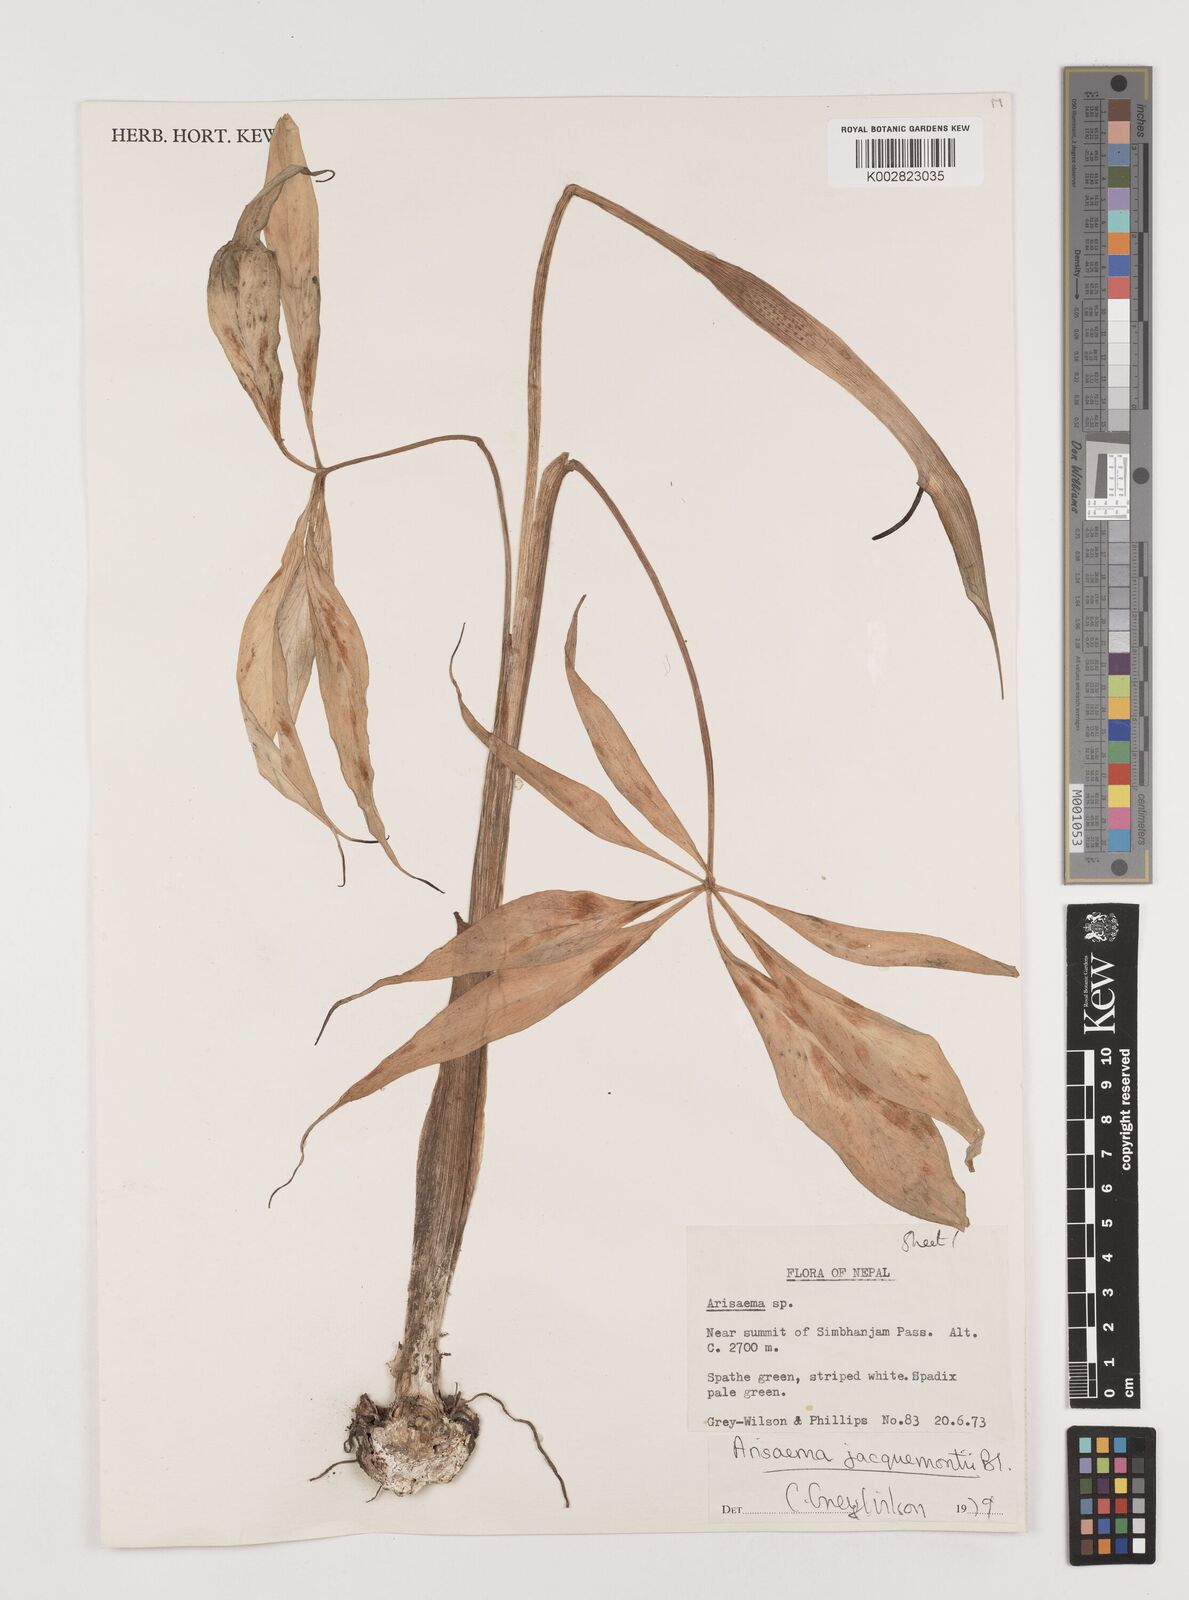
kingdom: Plantae
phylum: Tracheophyta
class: Liliopsida
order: Alismatales
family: Araceae
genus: Arisaema
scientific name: Arisaema jacquemontii
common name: Jacquemont's cobra-lily
